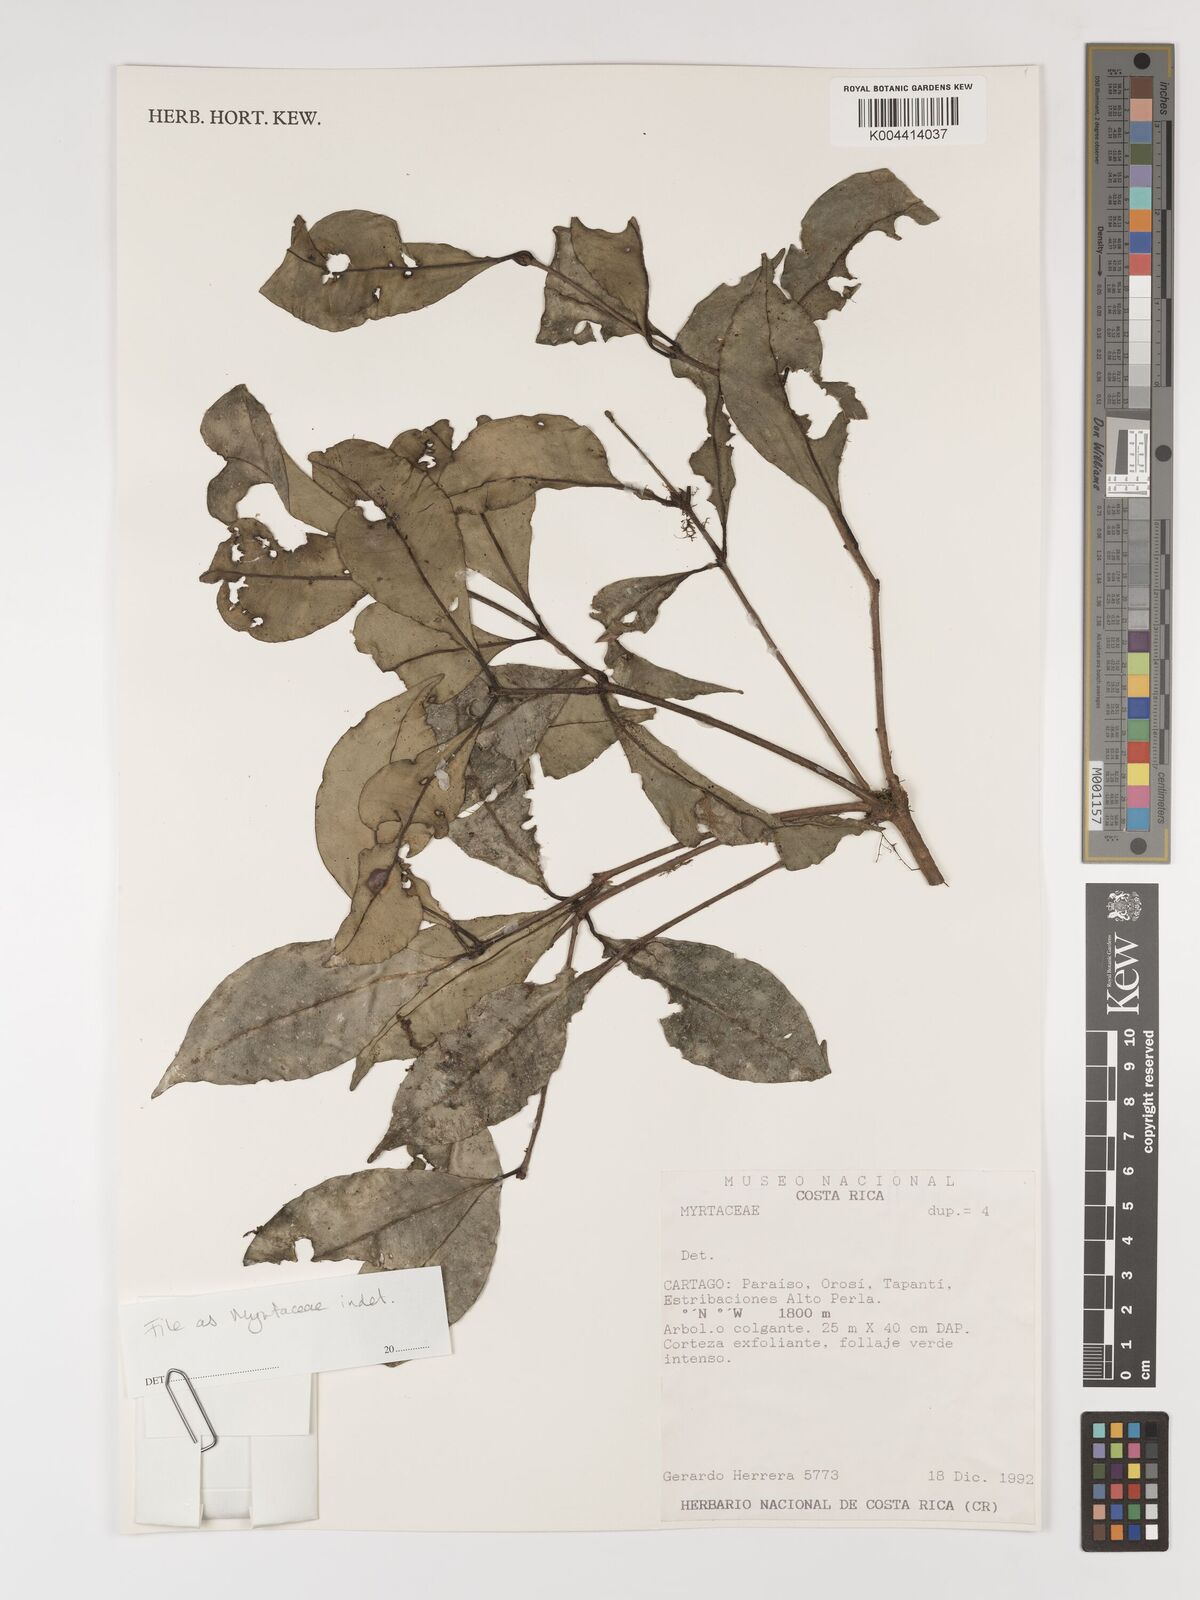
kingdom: Plantae
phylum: Tracheophyta
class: Magnoliopsida
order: Myrtales
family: Myrtaceae
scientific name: Myrtaceae
